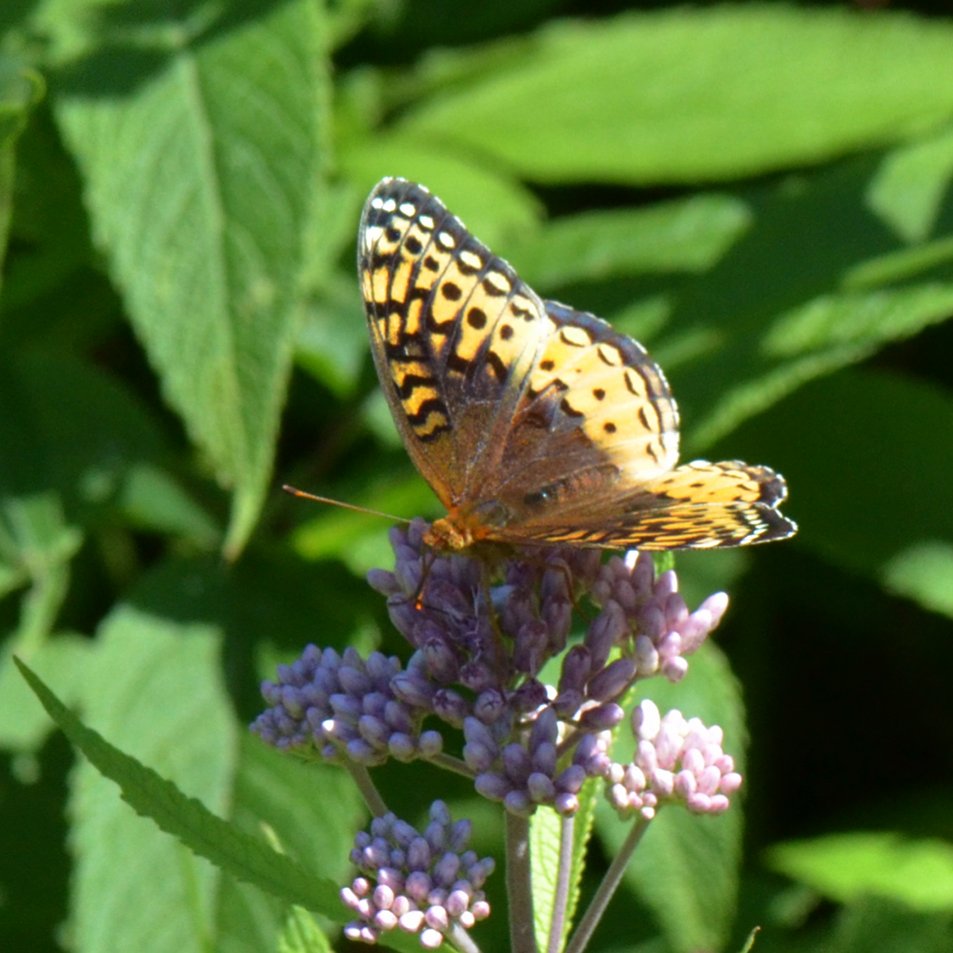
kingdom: Animalia
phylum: Arthropoda
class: Insecta
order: Lepidoptera
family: Nymphalidae
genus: Speyeria
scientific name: Speyeria cybele
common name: Great Spangled Fritillary
